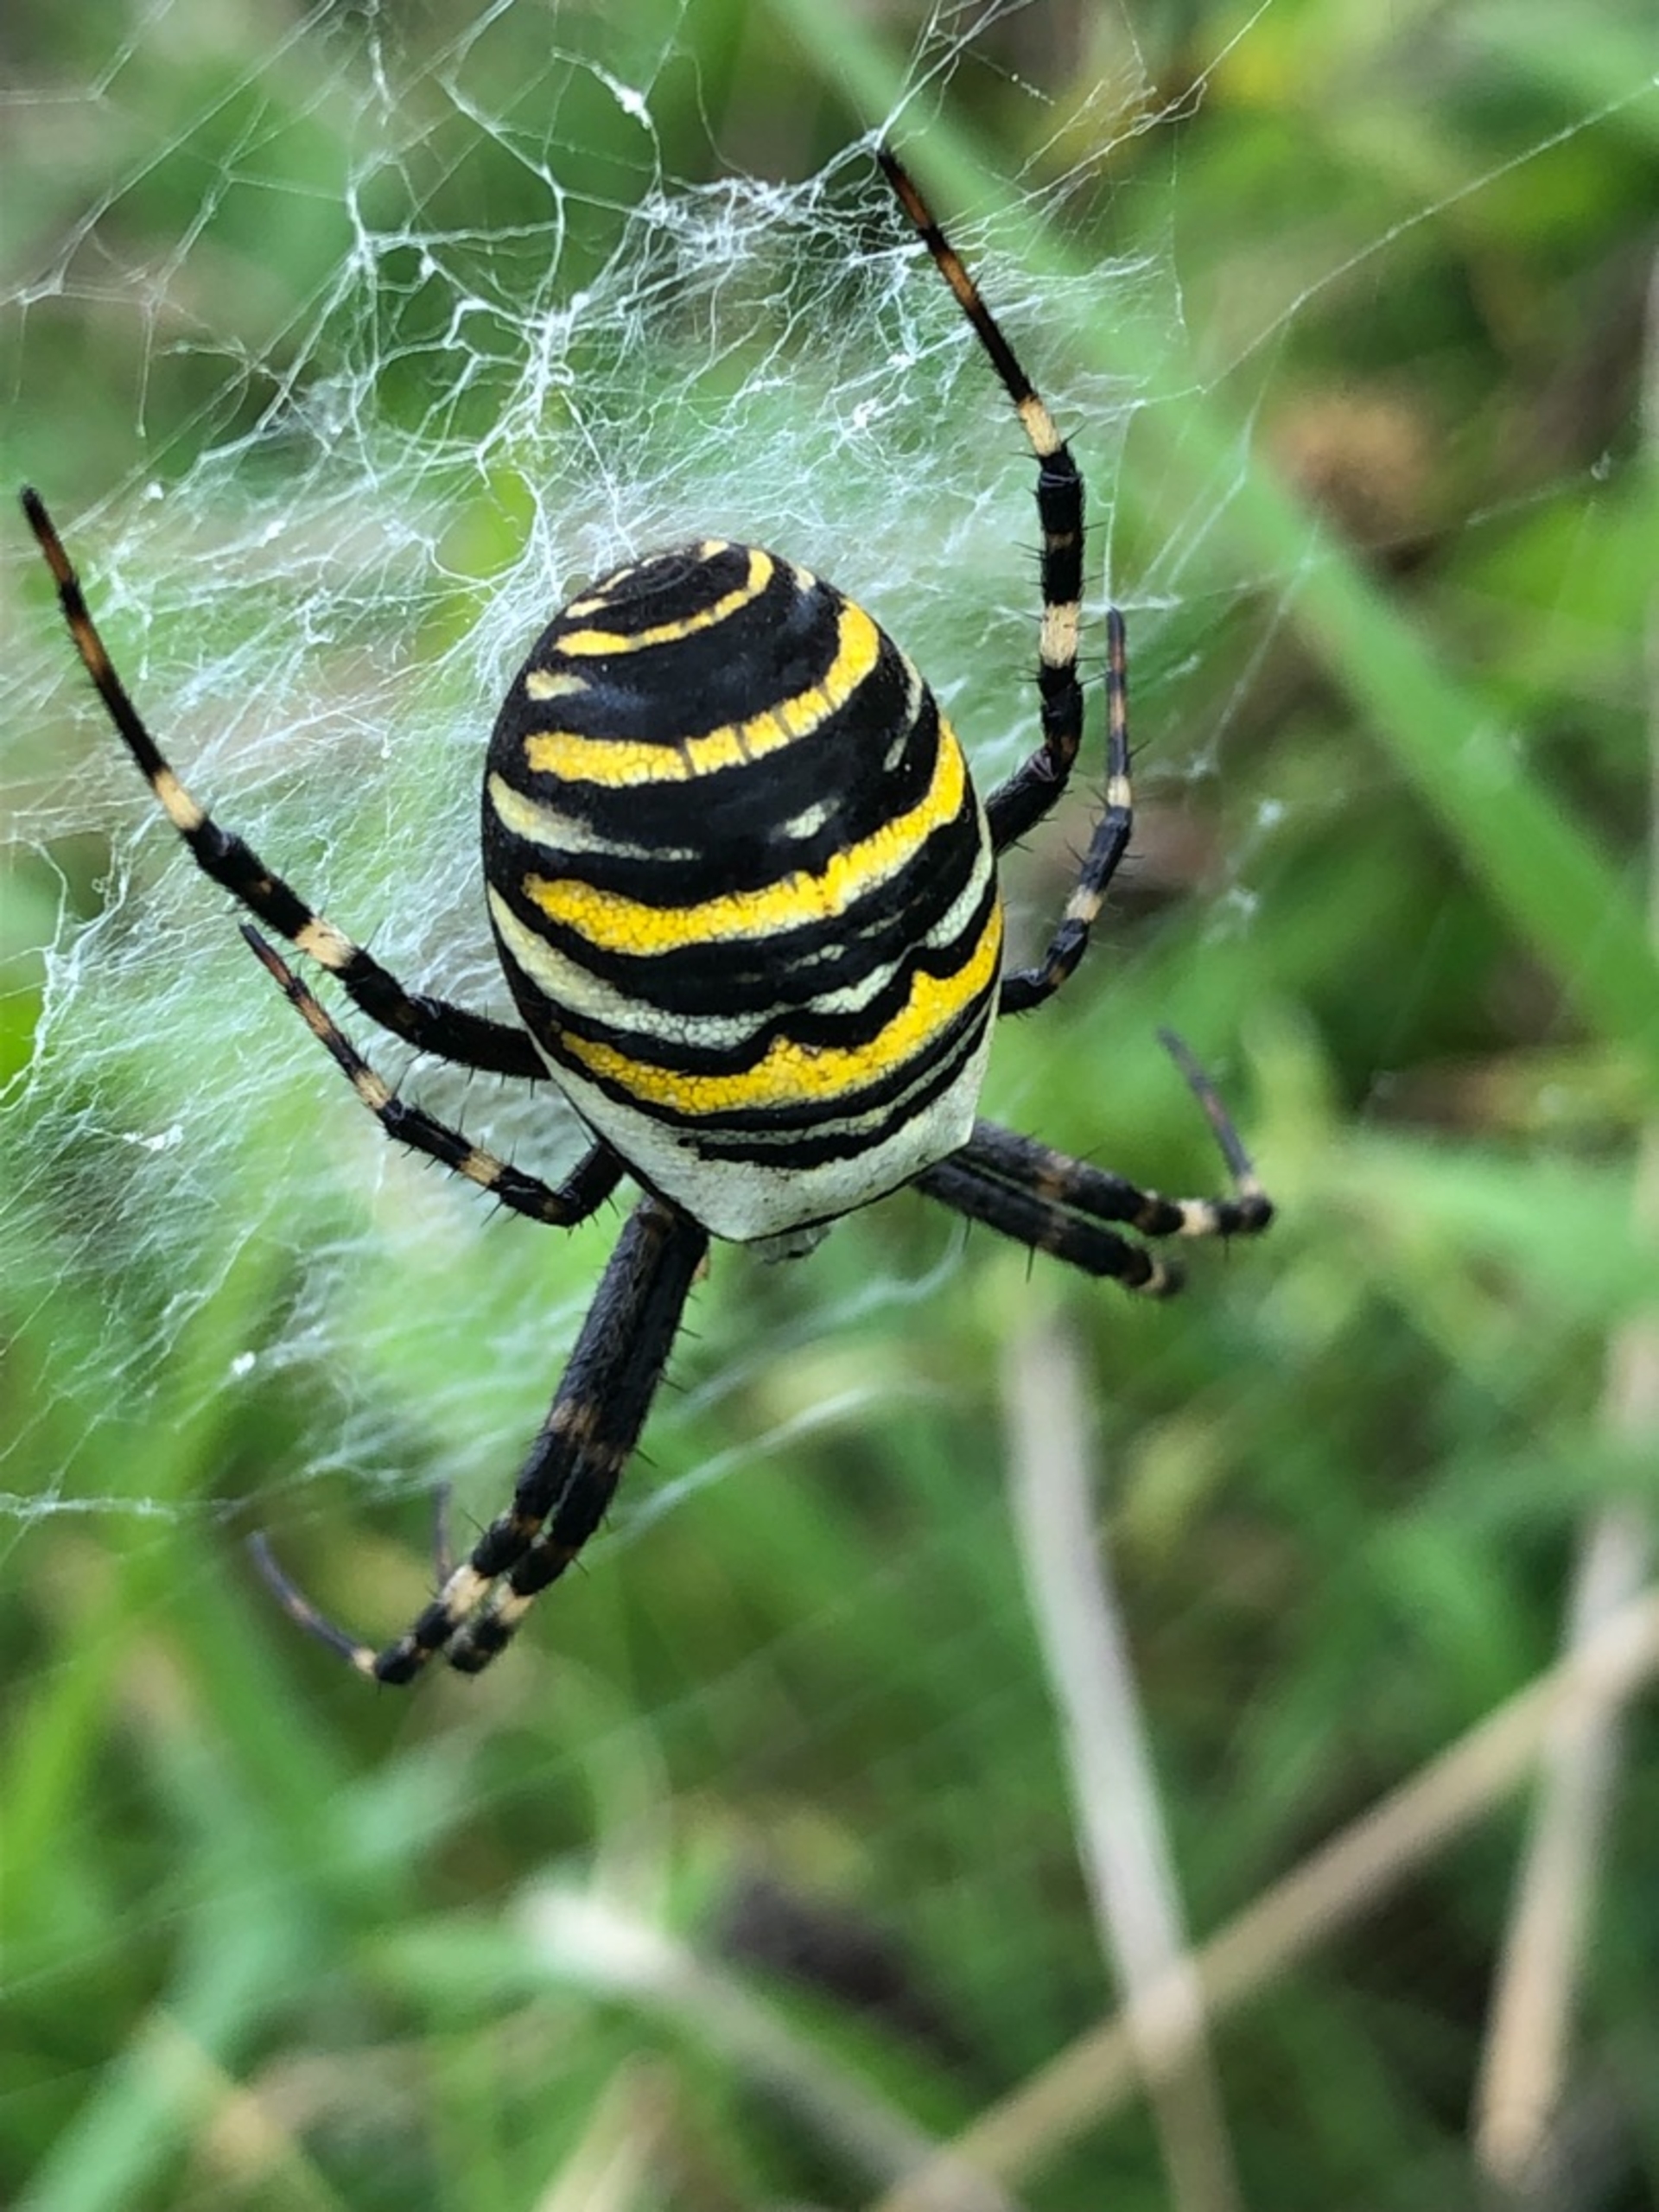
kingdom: Animalia
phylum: Arthropoda
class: Arachnida
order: Araneae
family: Araneidae
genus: Argiope
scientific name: Argiope bruennichi
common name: Hvepseedderkop
